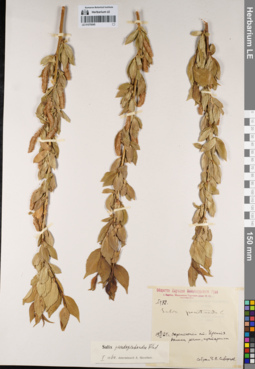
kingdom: Plantae
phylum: Tracheophyta
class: Magnoliopsida
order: Malpighiales
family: Salicaceae
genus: Salix
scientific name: Salix pseudopentandra
